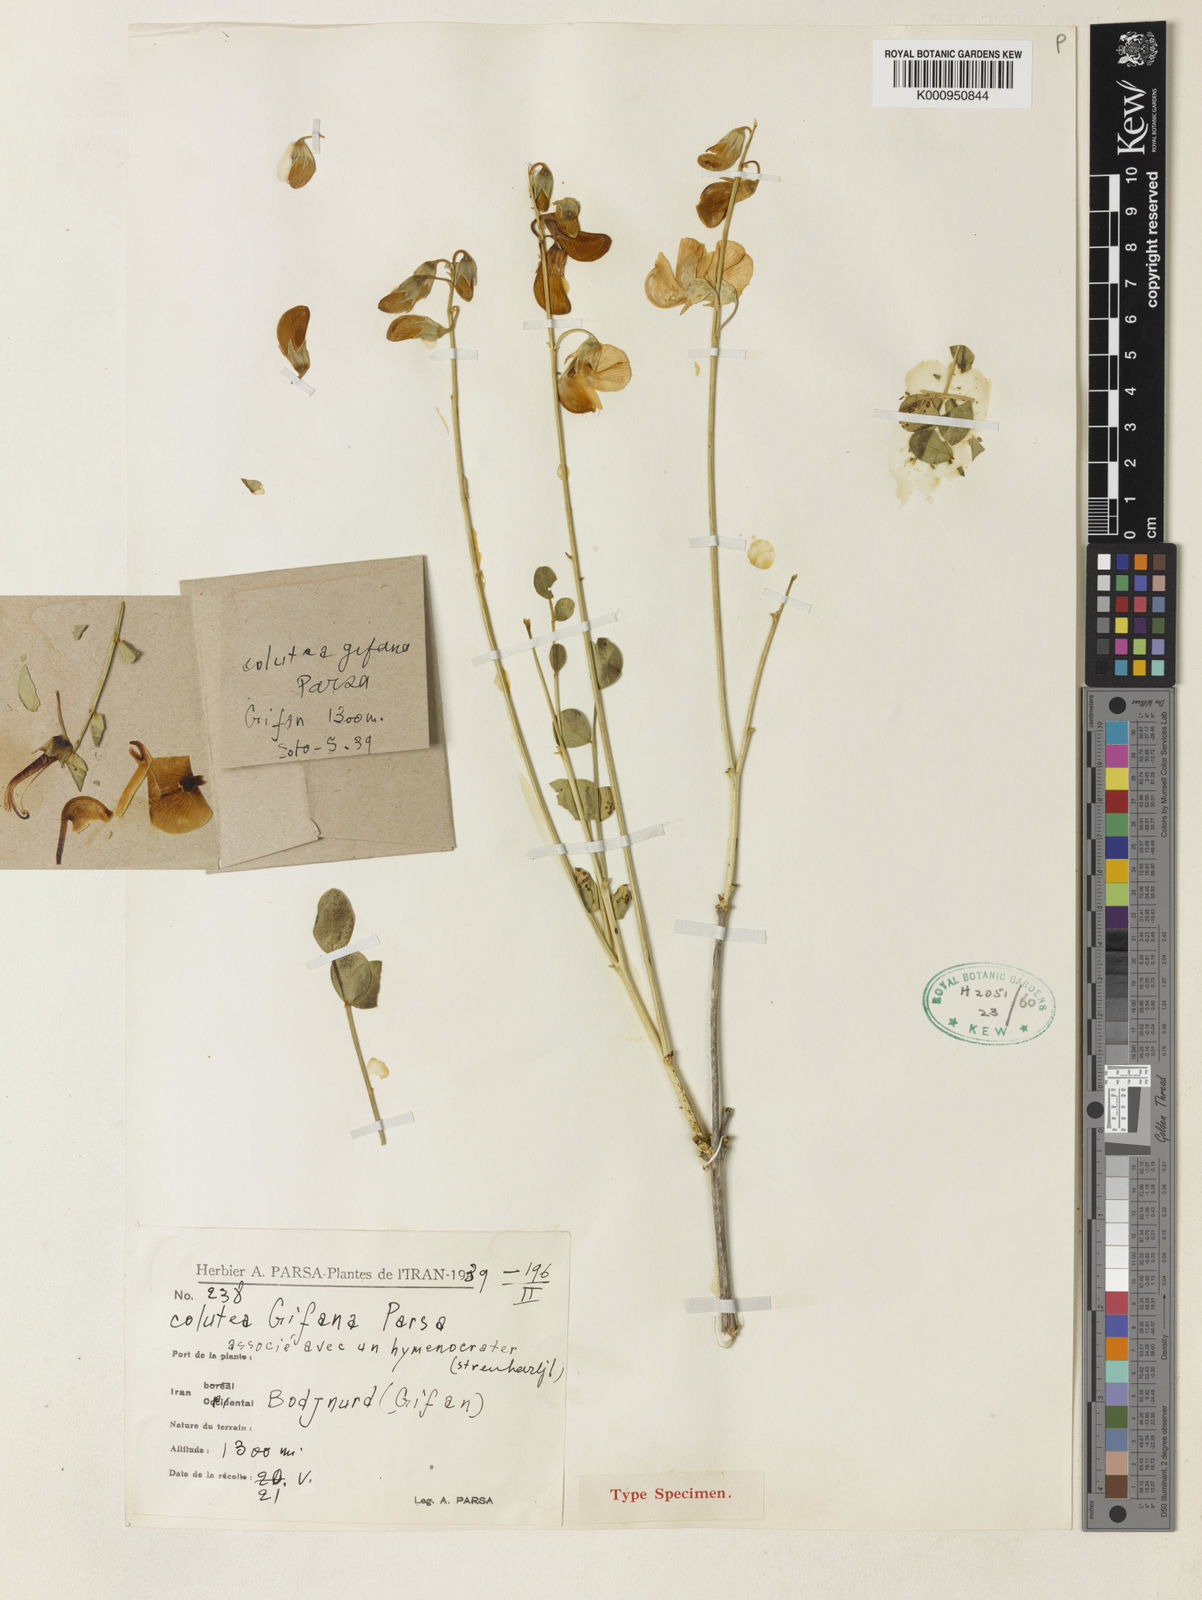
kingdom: Plantae
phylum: Tracheophyta
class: Magnoliopsida
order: Fabales
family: Fabaceae
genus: Colutea
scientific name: Colutea gifana
